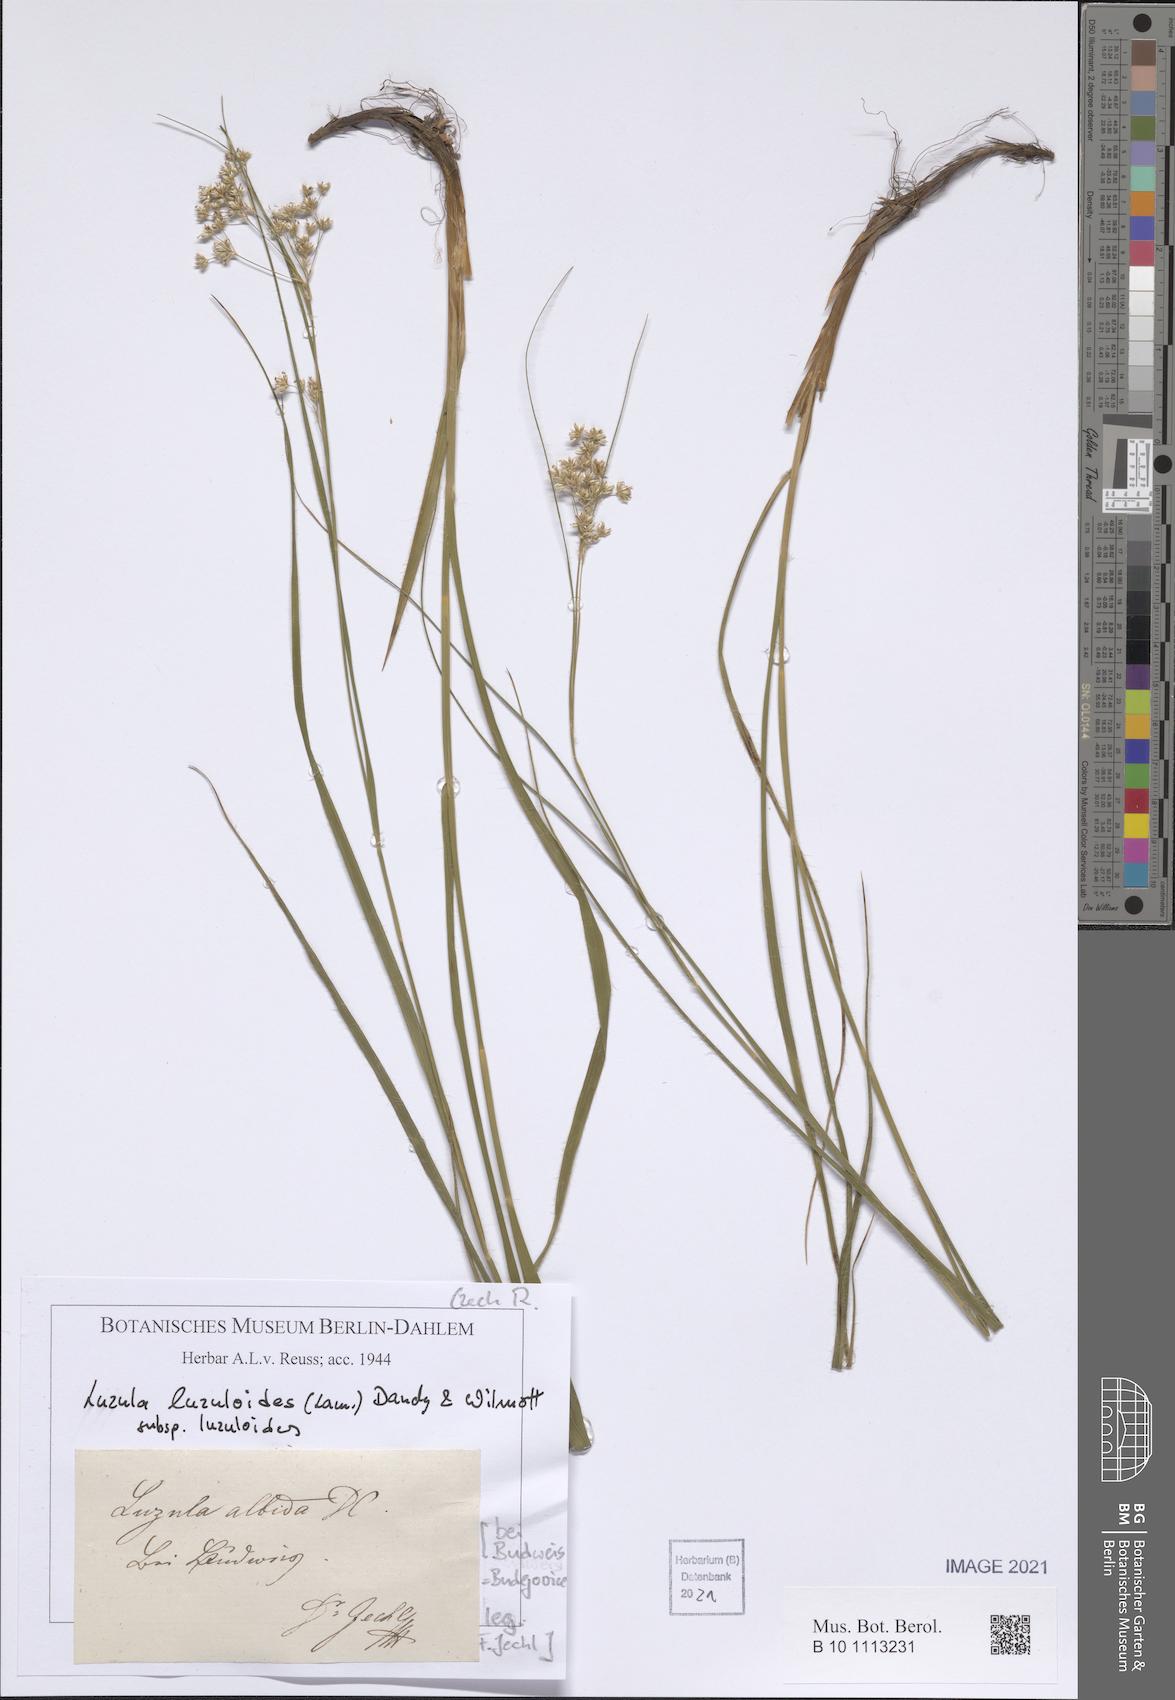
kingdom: Plantae
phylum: Tracheophyta
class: Liliopsida
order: Poales
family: Juncaceae
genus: Luzula
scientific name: Luzula luzuloides
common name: White wood-rush
